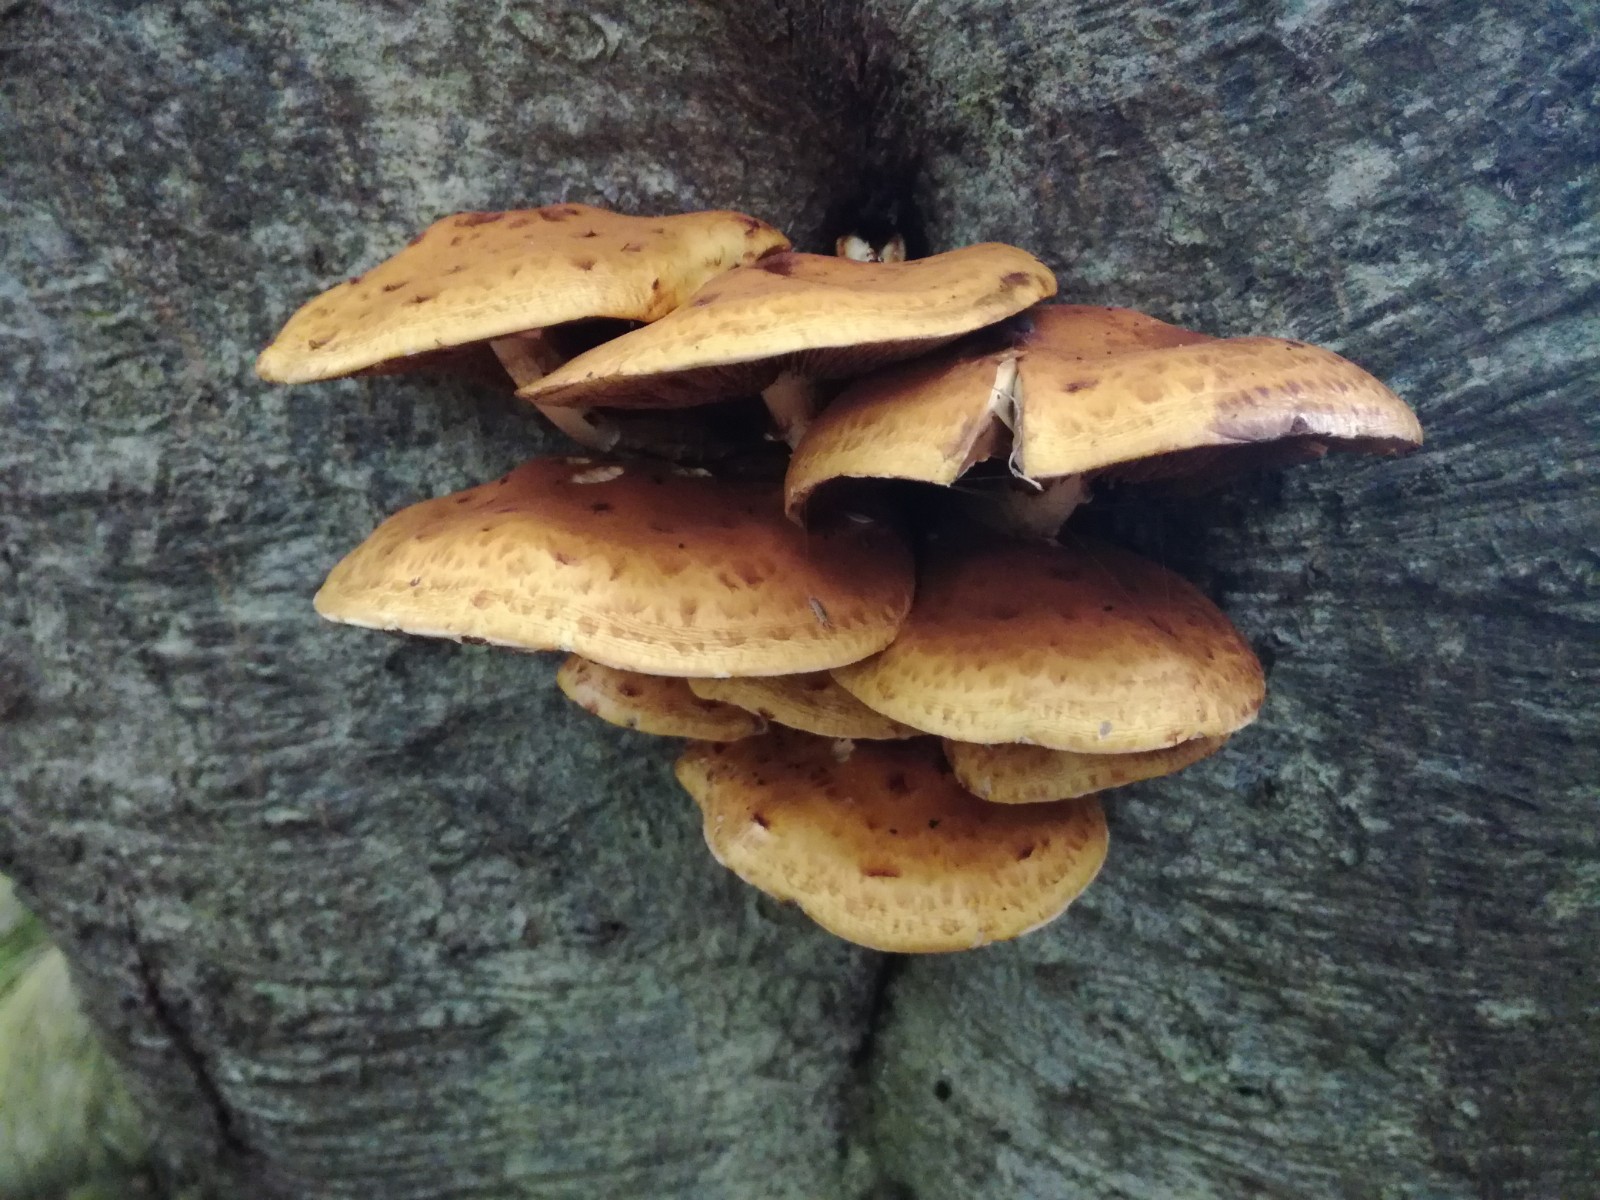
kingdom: Fungi
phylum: Basidiomycota
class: Agaricomycetes
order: Agaricales
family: Strophariaceae
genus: Pholiota
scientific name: Pholiota adiposa
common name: højtsiddende skælhat
